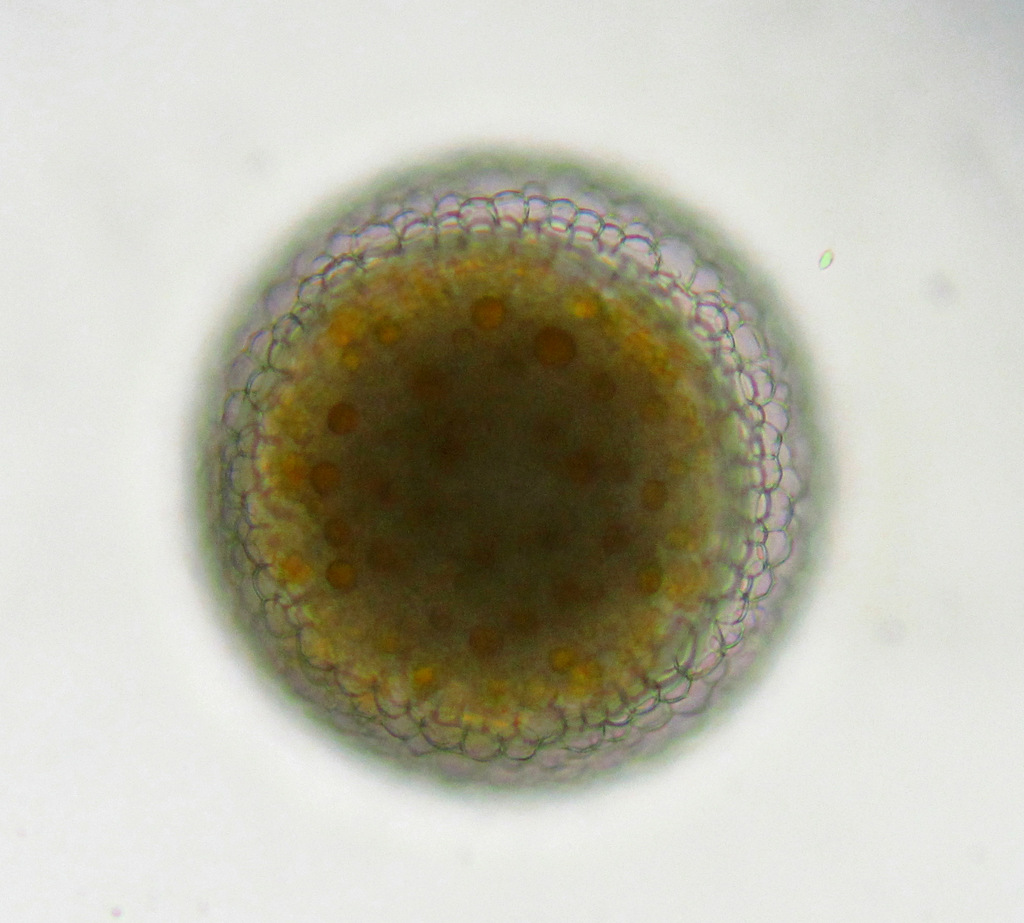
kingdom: Animalia
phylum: Rotifera
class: Eurotatoria
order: Ploima
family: Asplanchnidae
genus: Asplanchna
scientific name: Asplanchna priodonta
